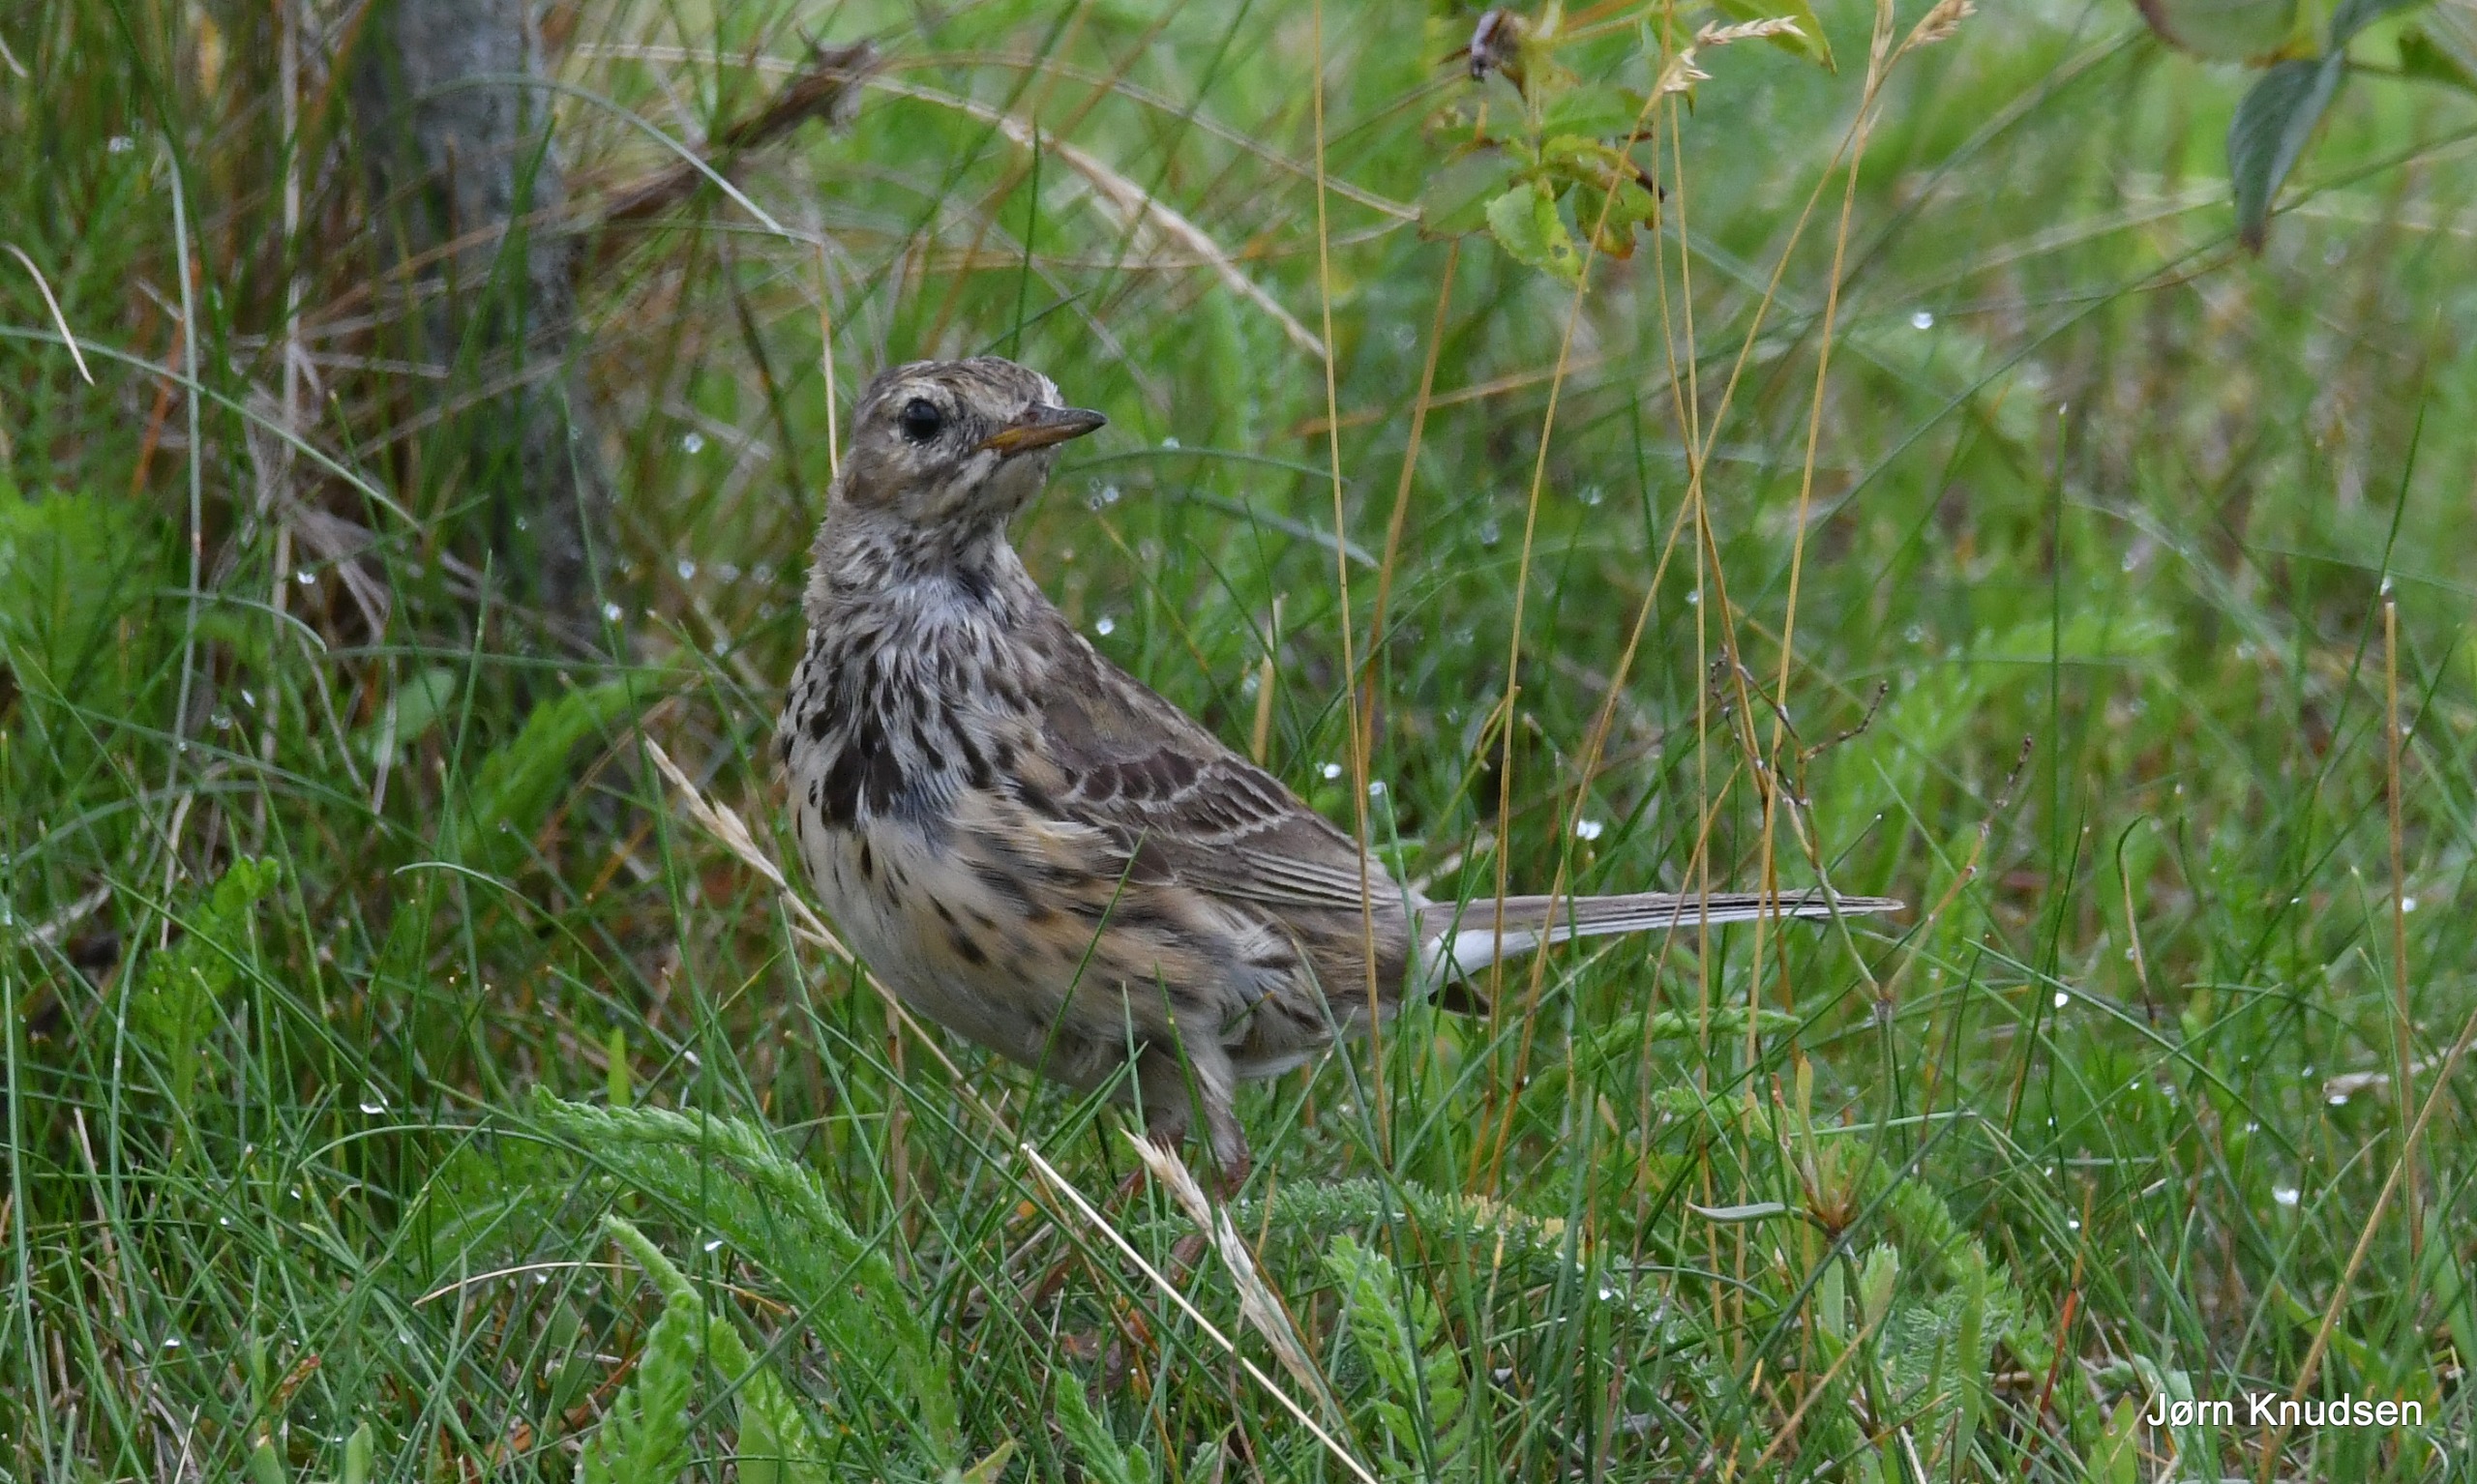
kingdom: Animalia
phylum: Chordata
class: Aves
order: Passeriformes
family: Motacillidae
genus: Anthus
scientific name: Anthus pratensis
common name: Engpiber
